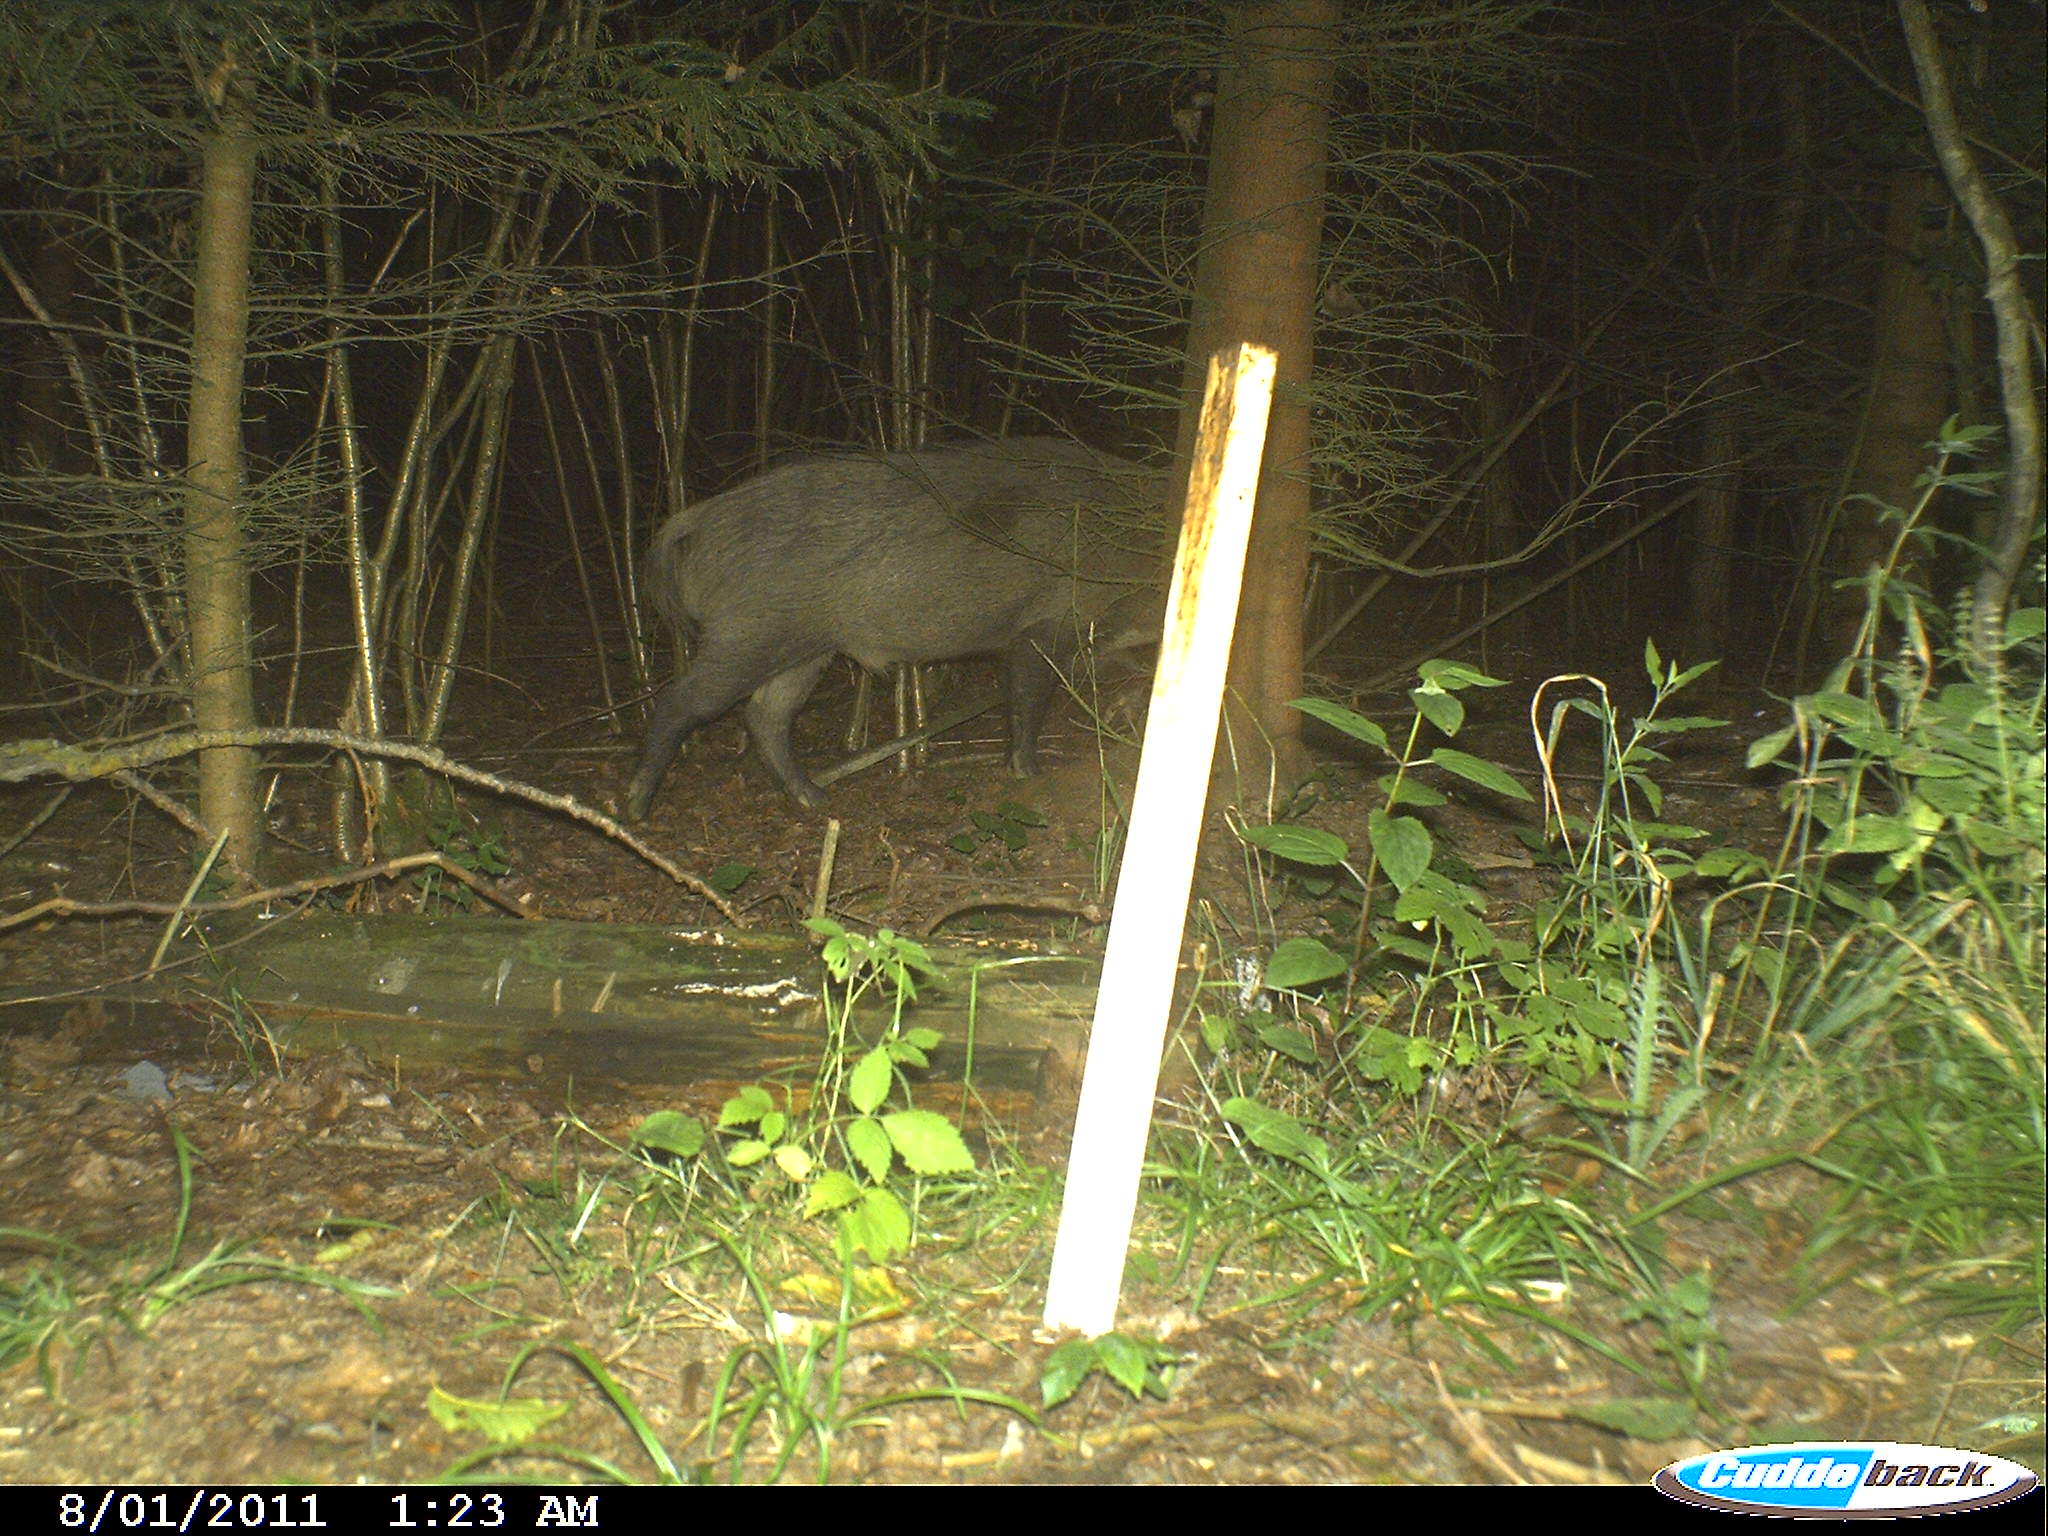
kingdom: Animalia
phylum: Chordata
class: Mammalia
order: Artiodactyla
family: Suidae
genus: Sus
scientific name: Sus scrofa
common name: Wild boar
